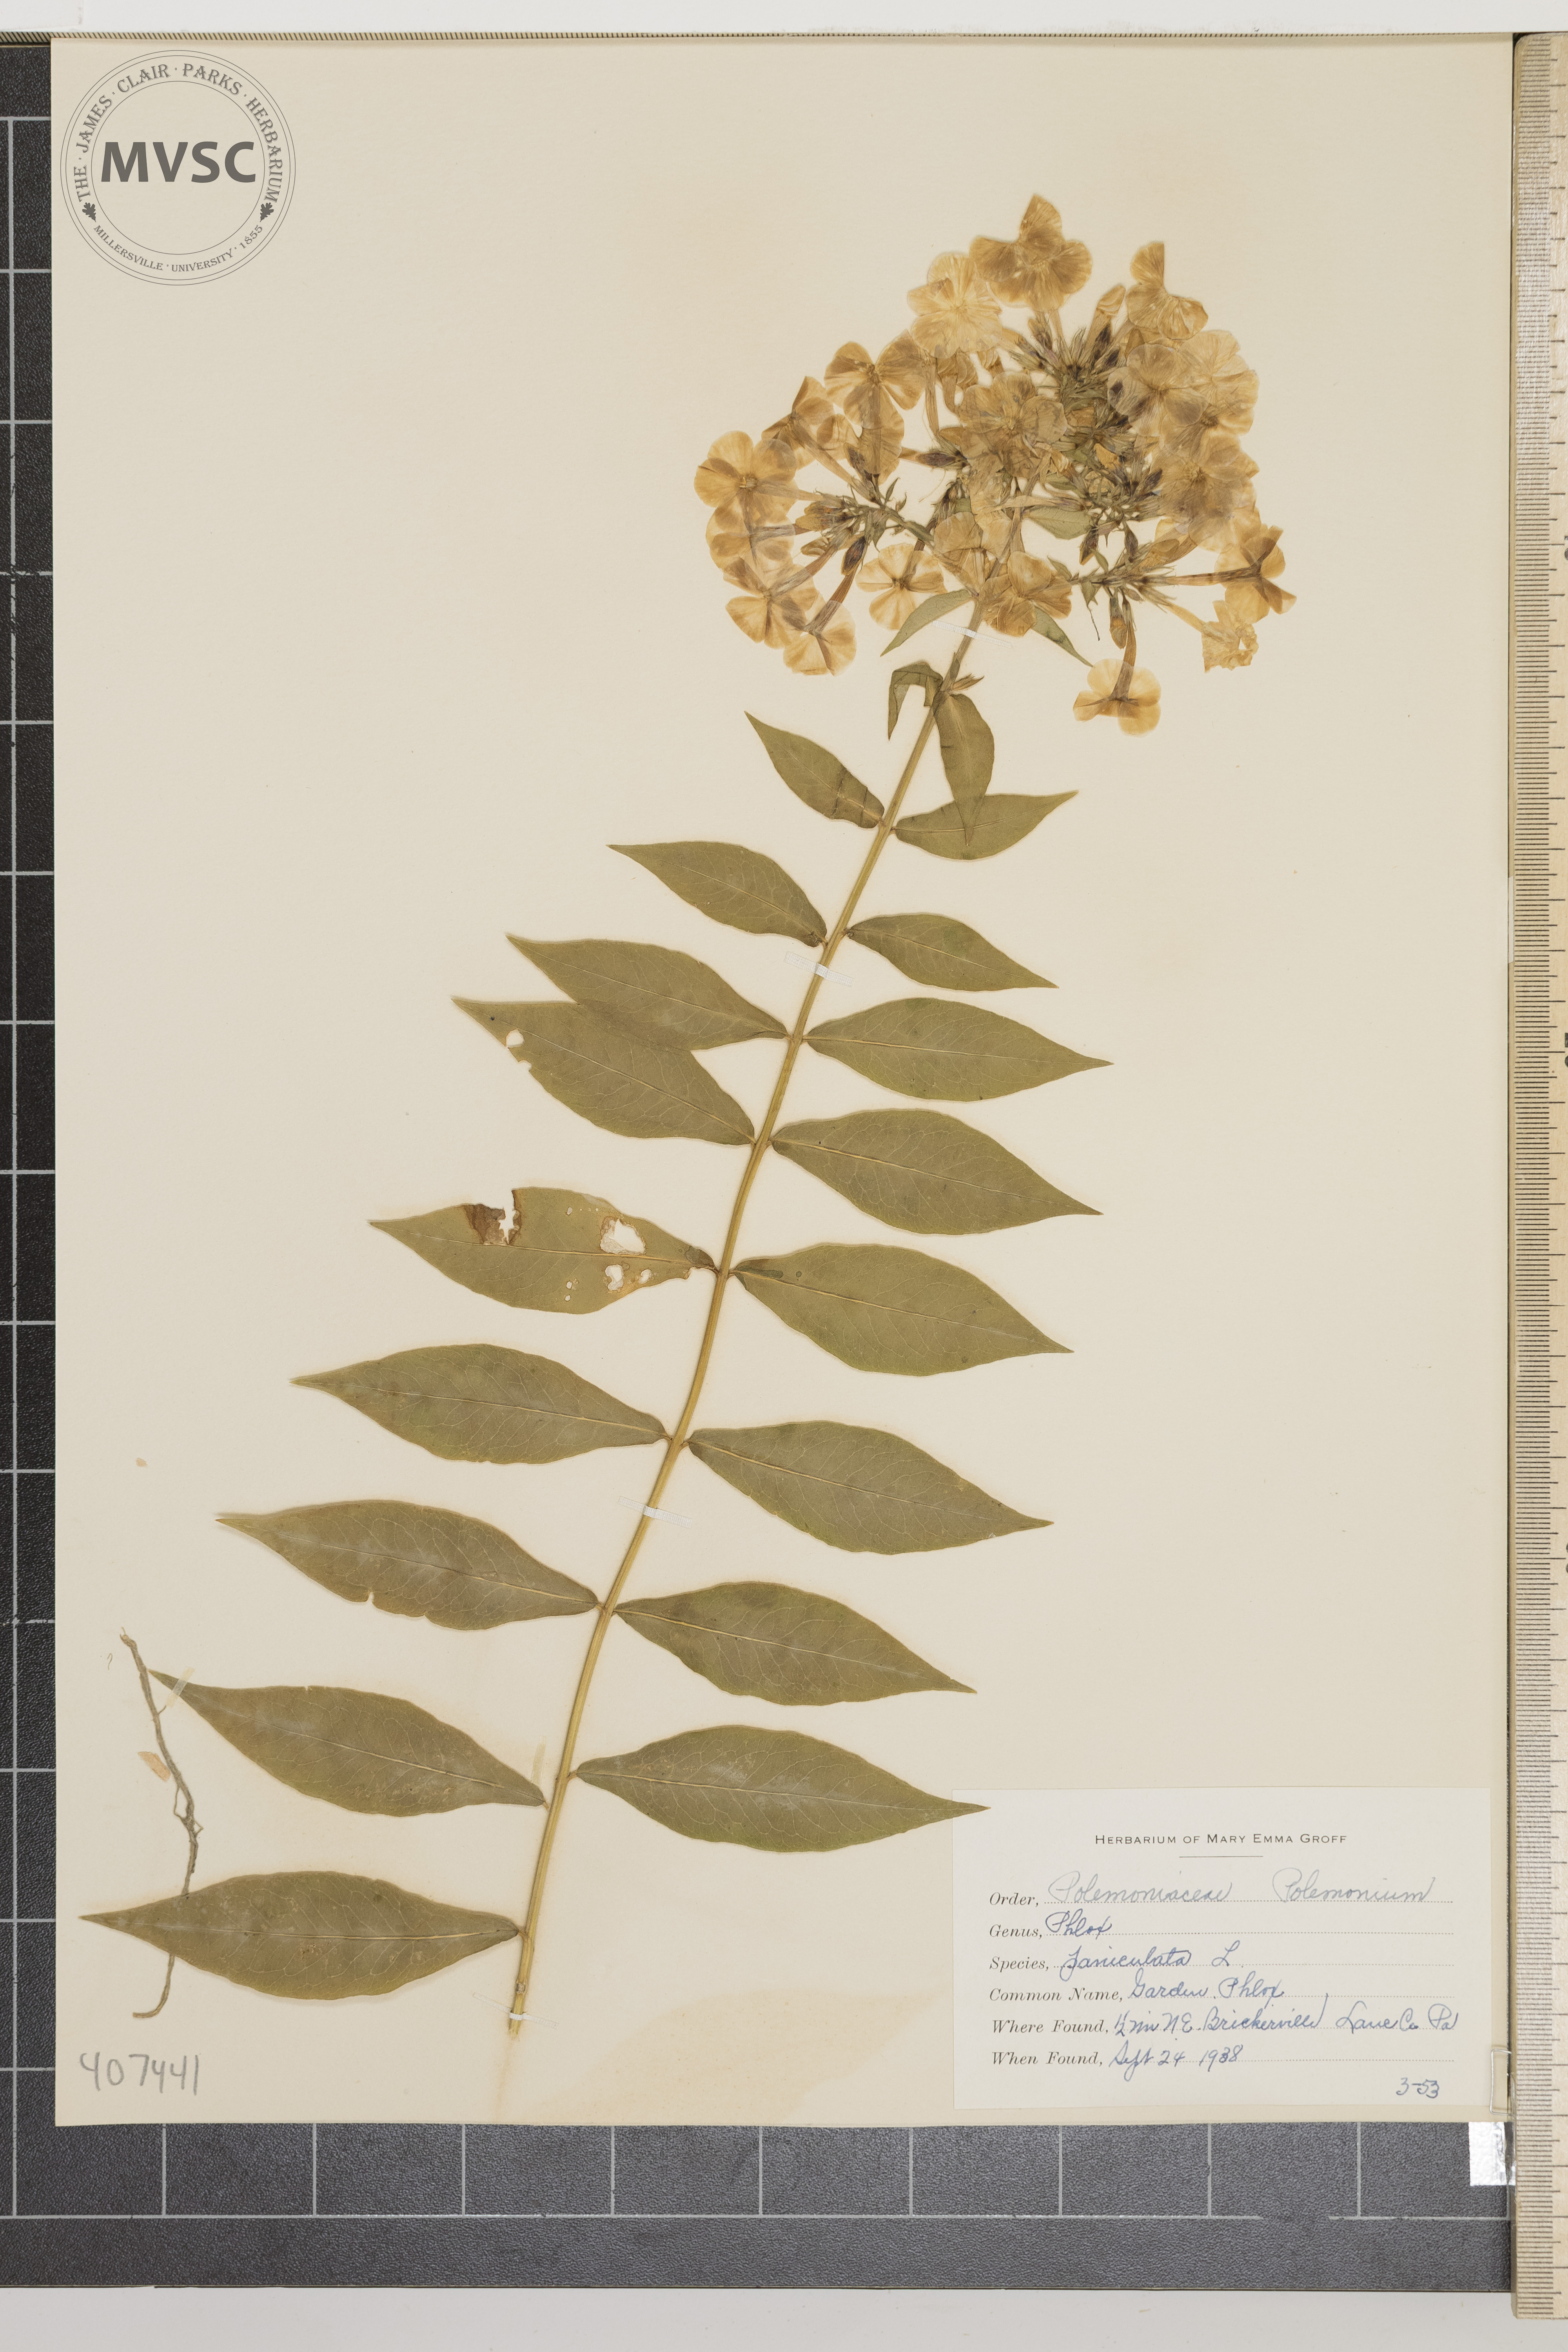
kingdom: Plantae
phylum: Tracheophyta
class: Magnoliopsida
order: Ericales
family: Polemoniaceae
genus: Phlox
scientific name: Phlox paniculata
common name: Garden Phlox
